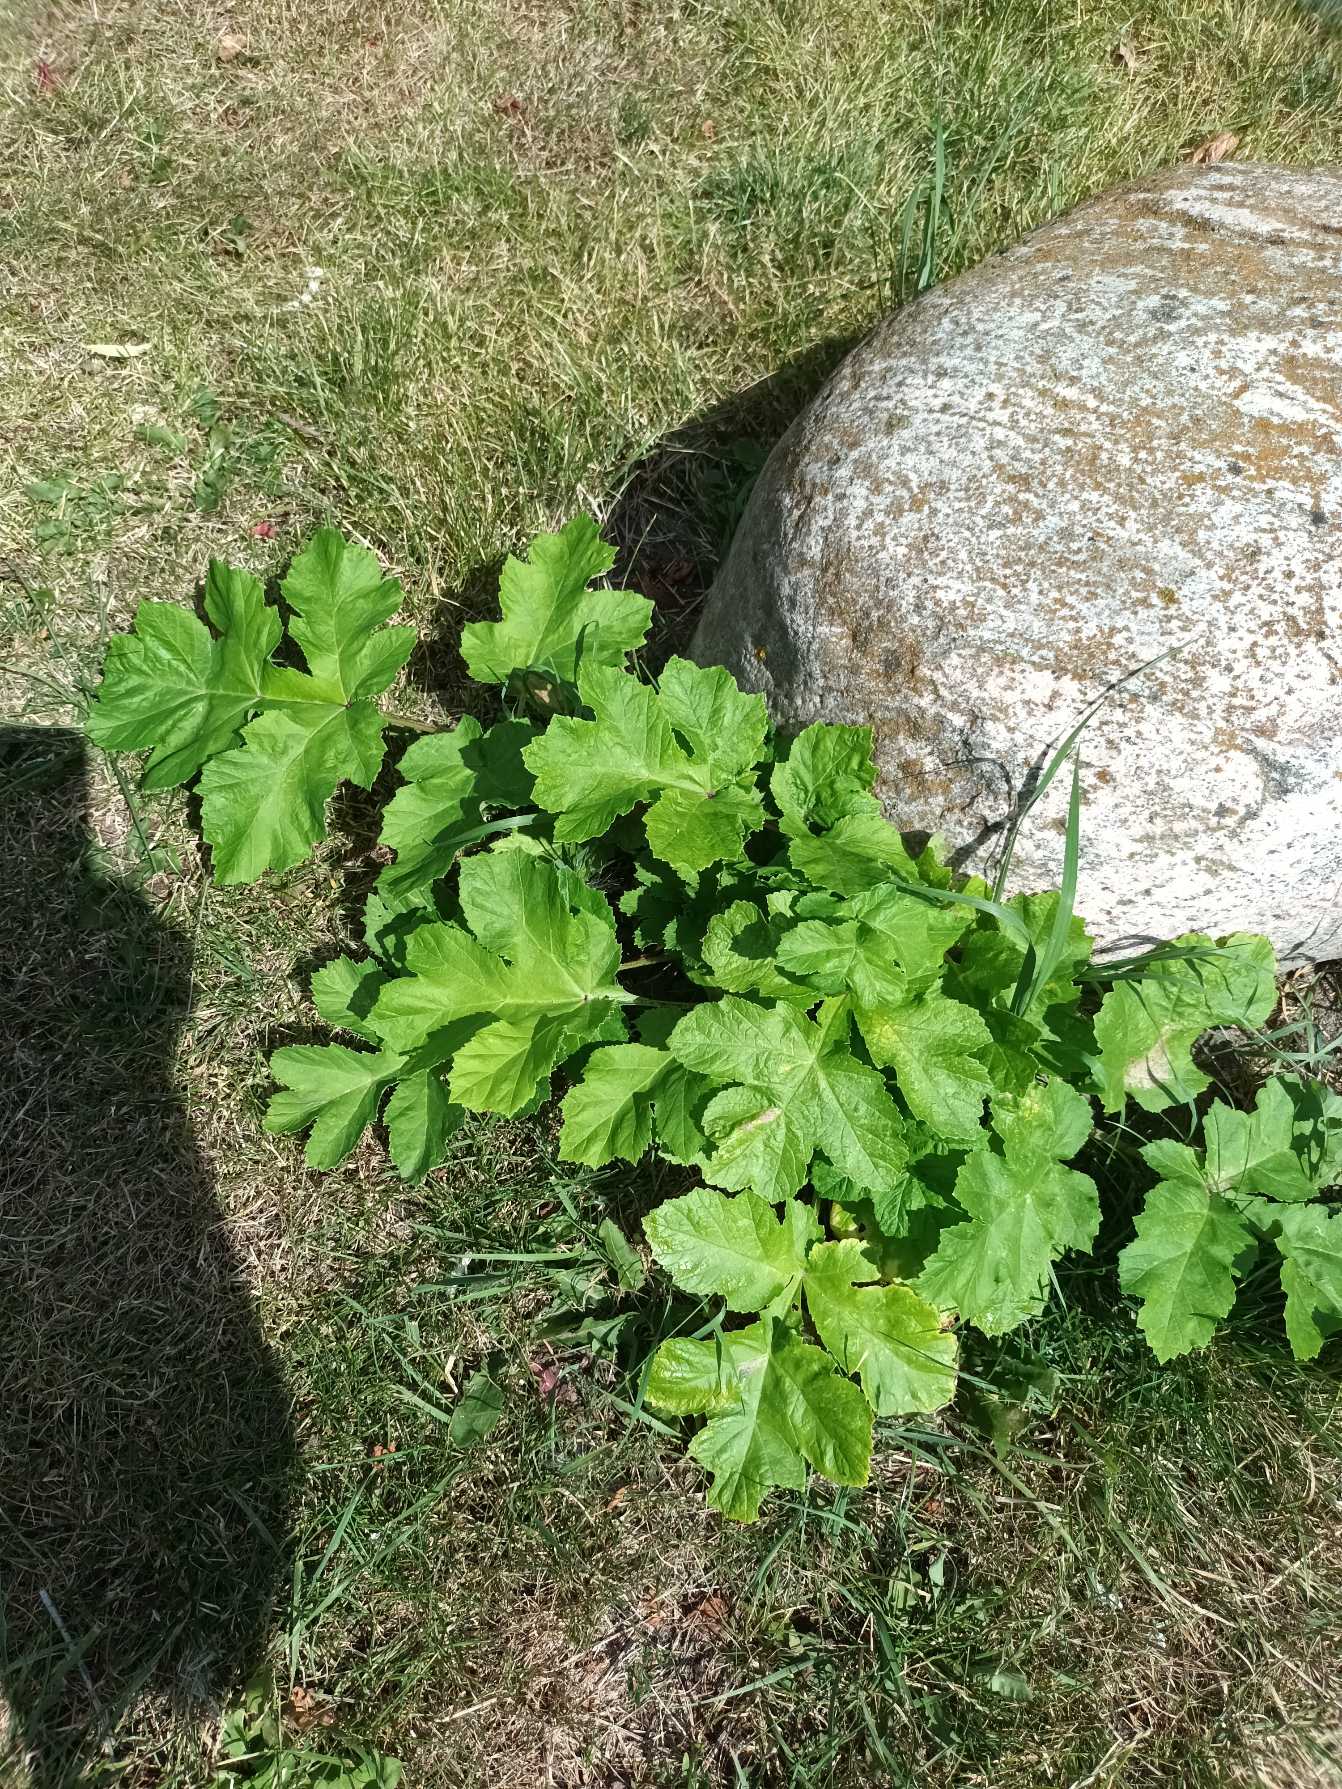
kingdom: Plantae
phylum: Tracheophyta
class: Magnoliopsida
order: Apiales
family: Apiaceae
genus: Heracleum
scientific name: Heracleum sosnowskyi
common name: Rundlobet bjørneklo
